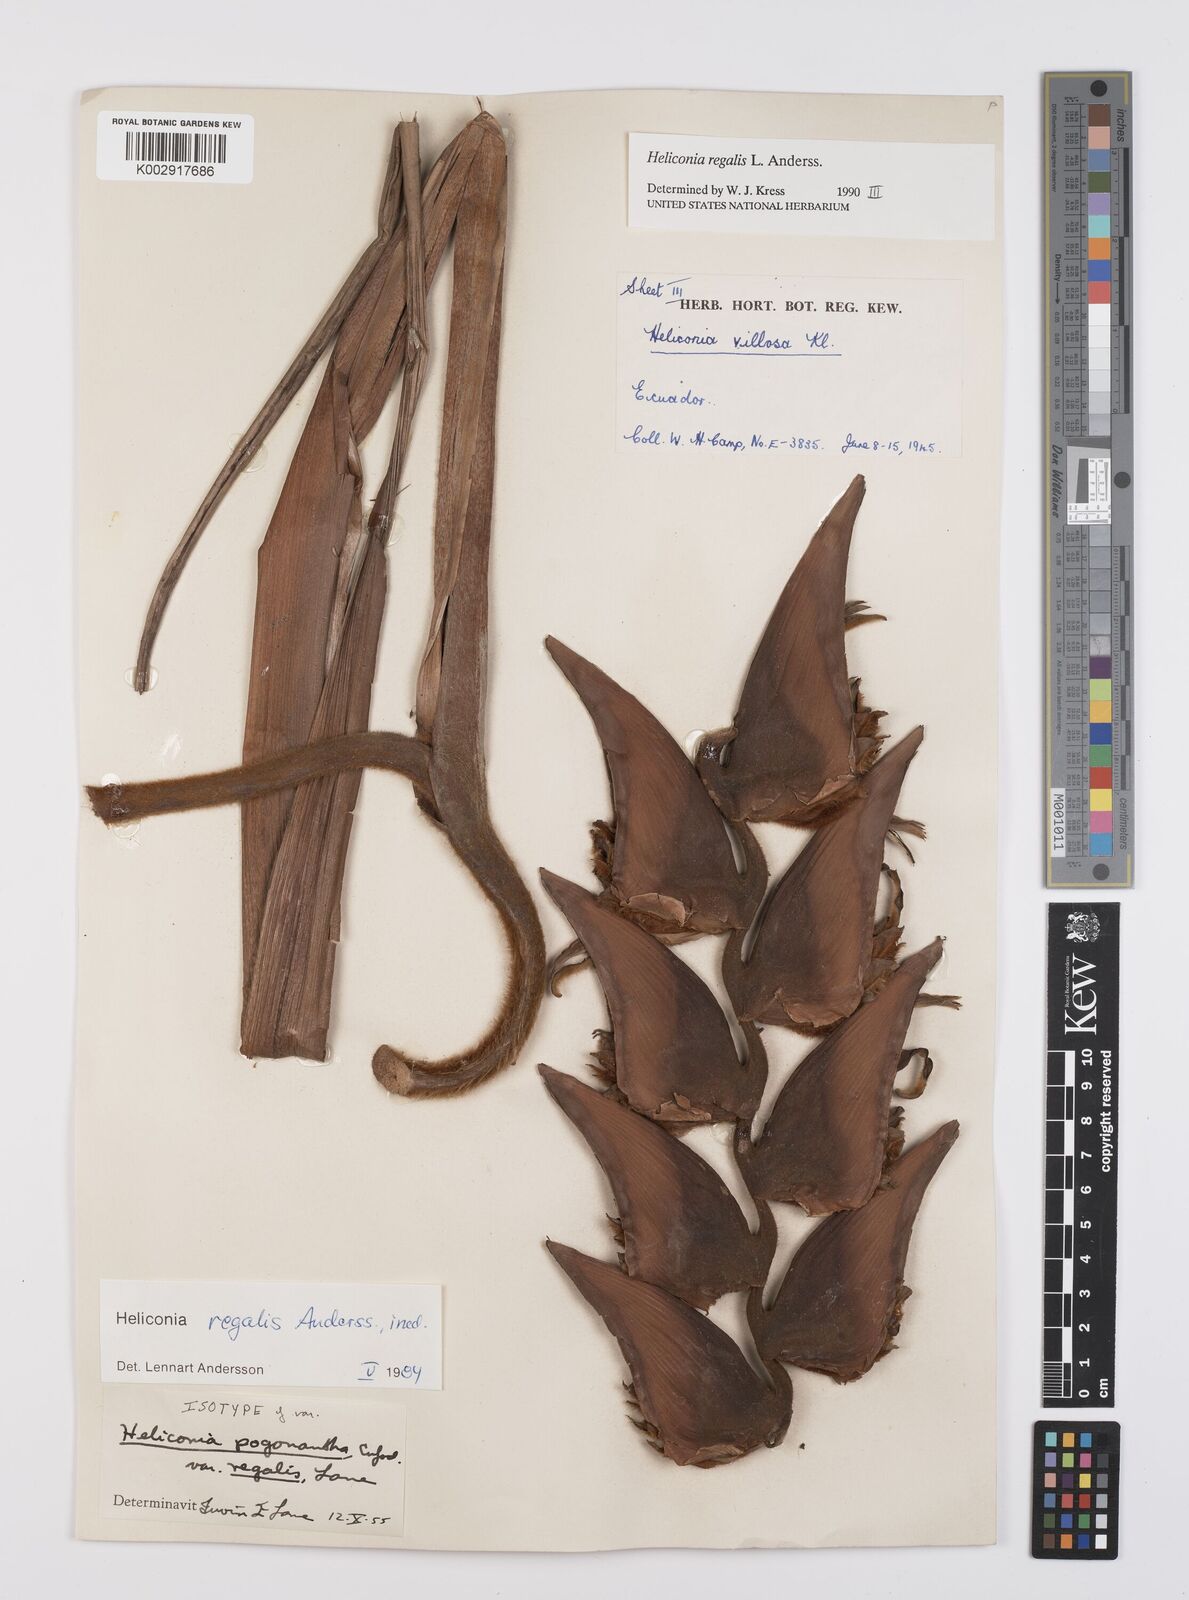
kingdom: Plantae
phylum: Tracheophyta
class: Liliopsida
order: Zingiberales
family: Heliconiaceae
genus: Heliconia
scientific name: Heliconia regalis
